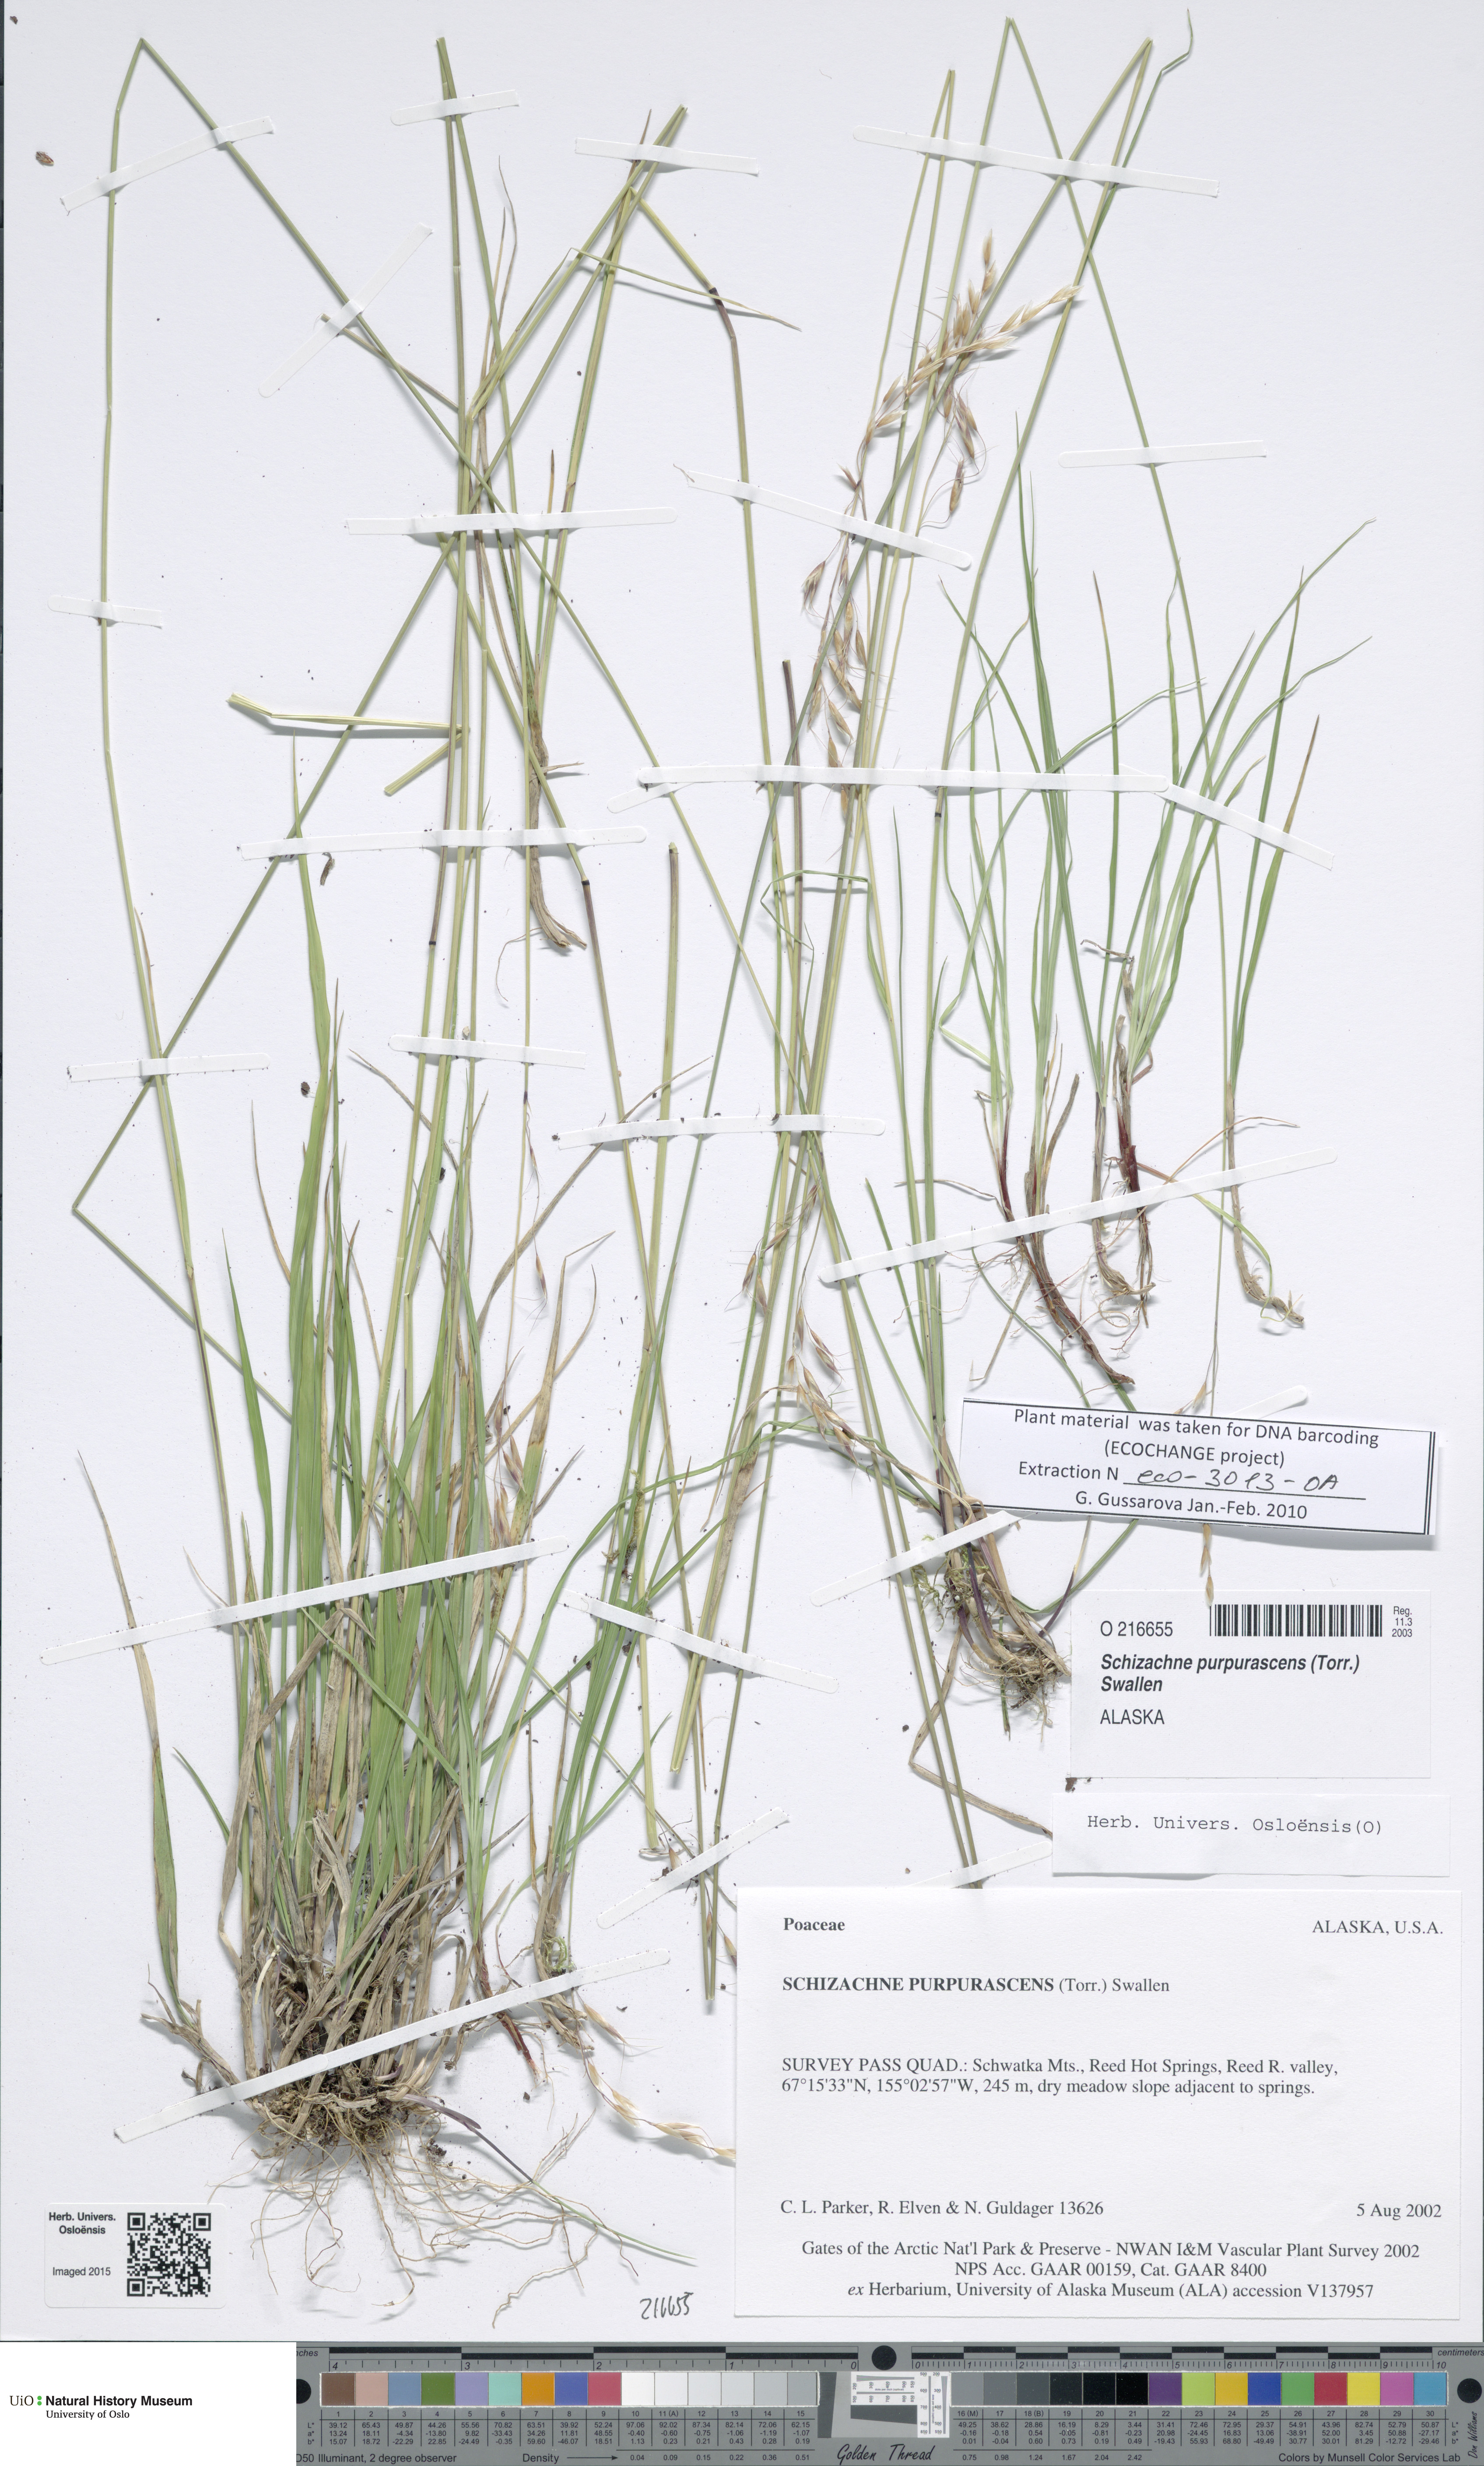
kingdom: Plantae
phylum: Tracheophyta
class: Liliopsida
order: Poales
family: Poaceae
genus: Schizachne
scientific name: Schizachne purpurascens
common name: False melic
